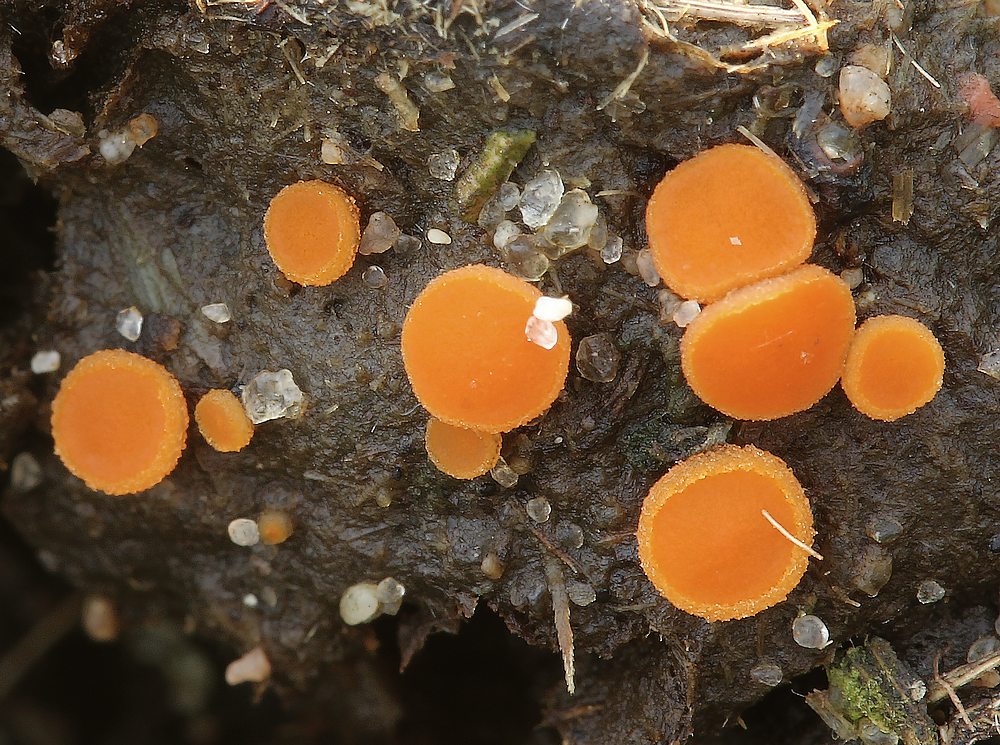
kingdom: Fungi
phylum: Ascomycota
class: Pezizomycetes
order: Pezizales
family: Pyronemataceae
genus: Cheilymenia
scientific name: Cheilymenia granulata
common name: møgbæger
